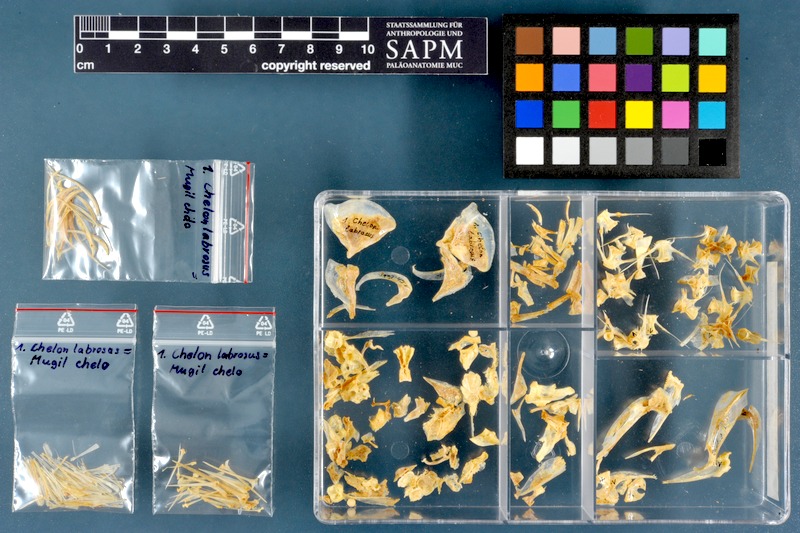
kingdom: Animalia
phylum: Chordata
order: Mugiliformes
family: Mugilidae
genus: Chelon
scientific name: Chelon labrosus
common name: Thick-lipped mullet
